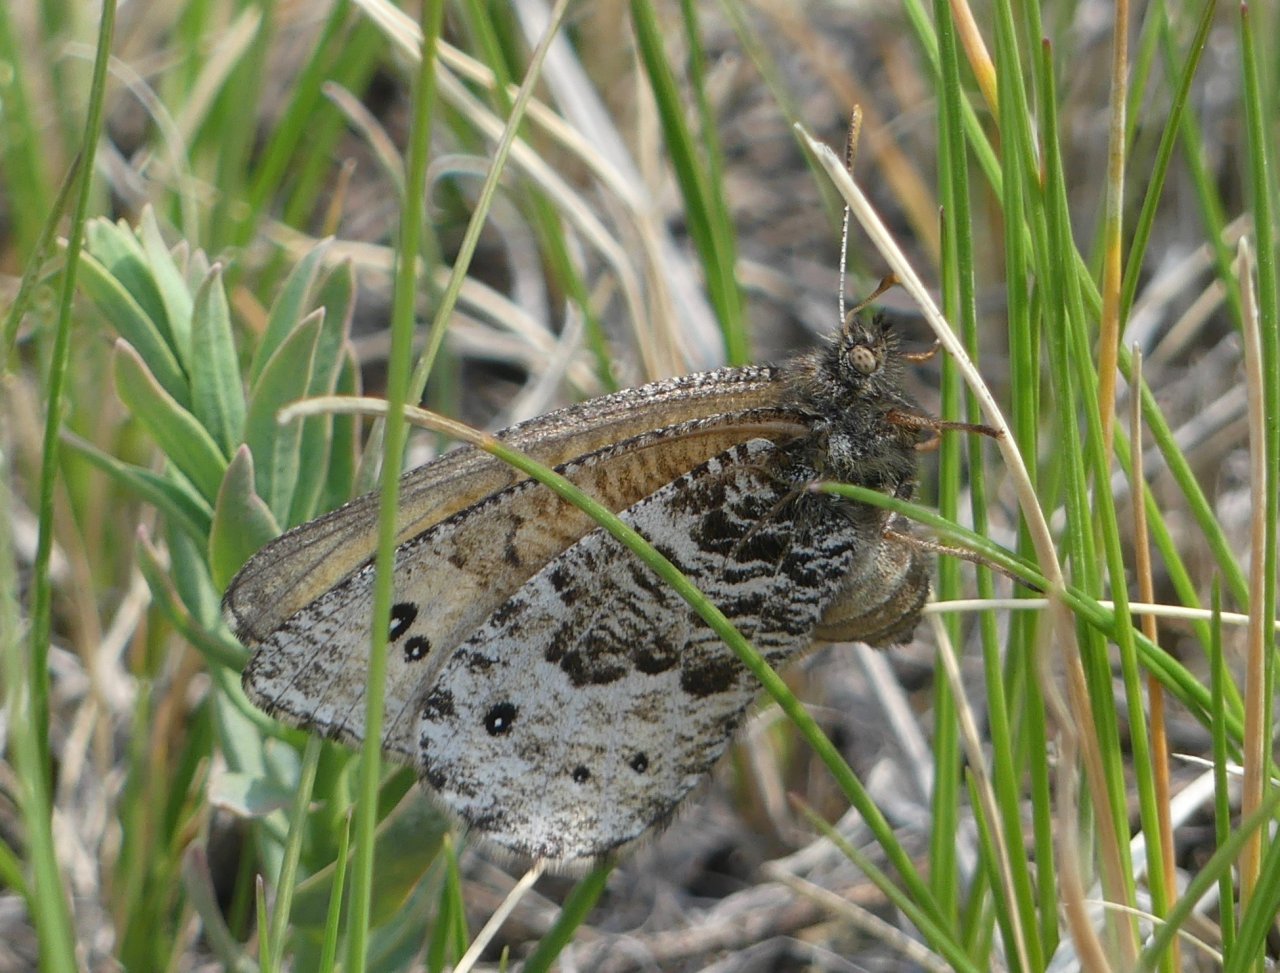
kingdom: Animalia
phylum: Arthropoda
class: Insecta
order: Lepidoptera
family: Nymphalidae
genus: Oeneis
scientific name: Oeneis uhleri
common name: Uhler's Arctic
